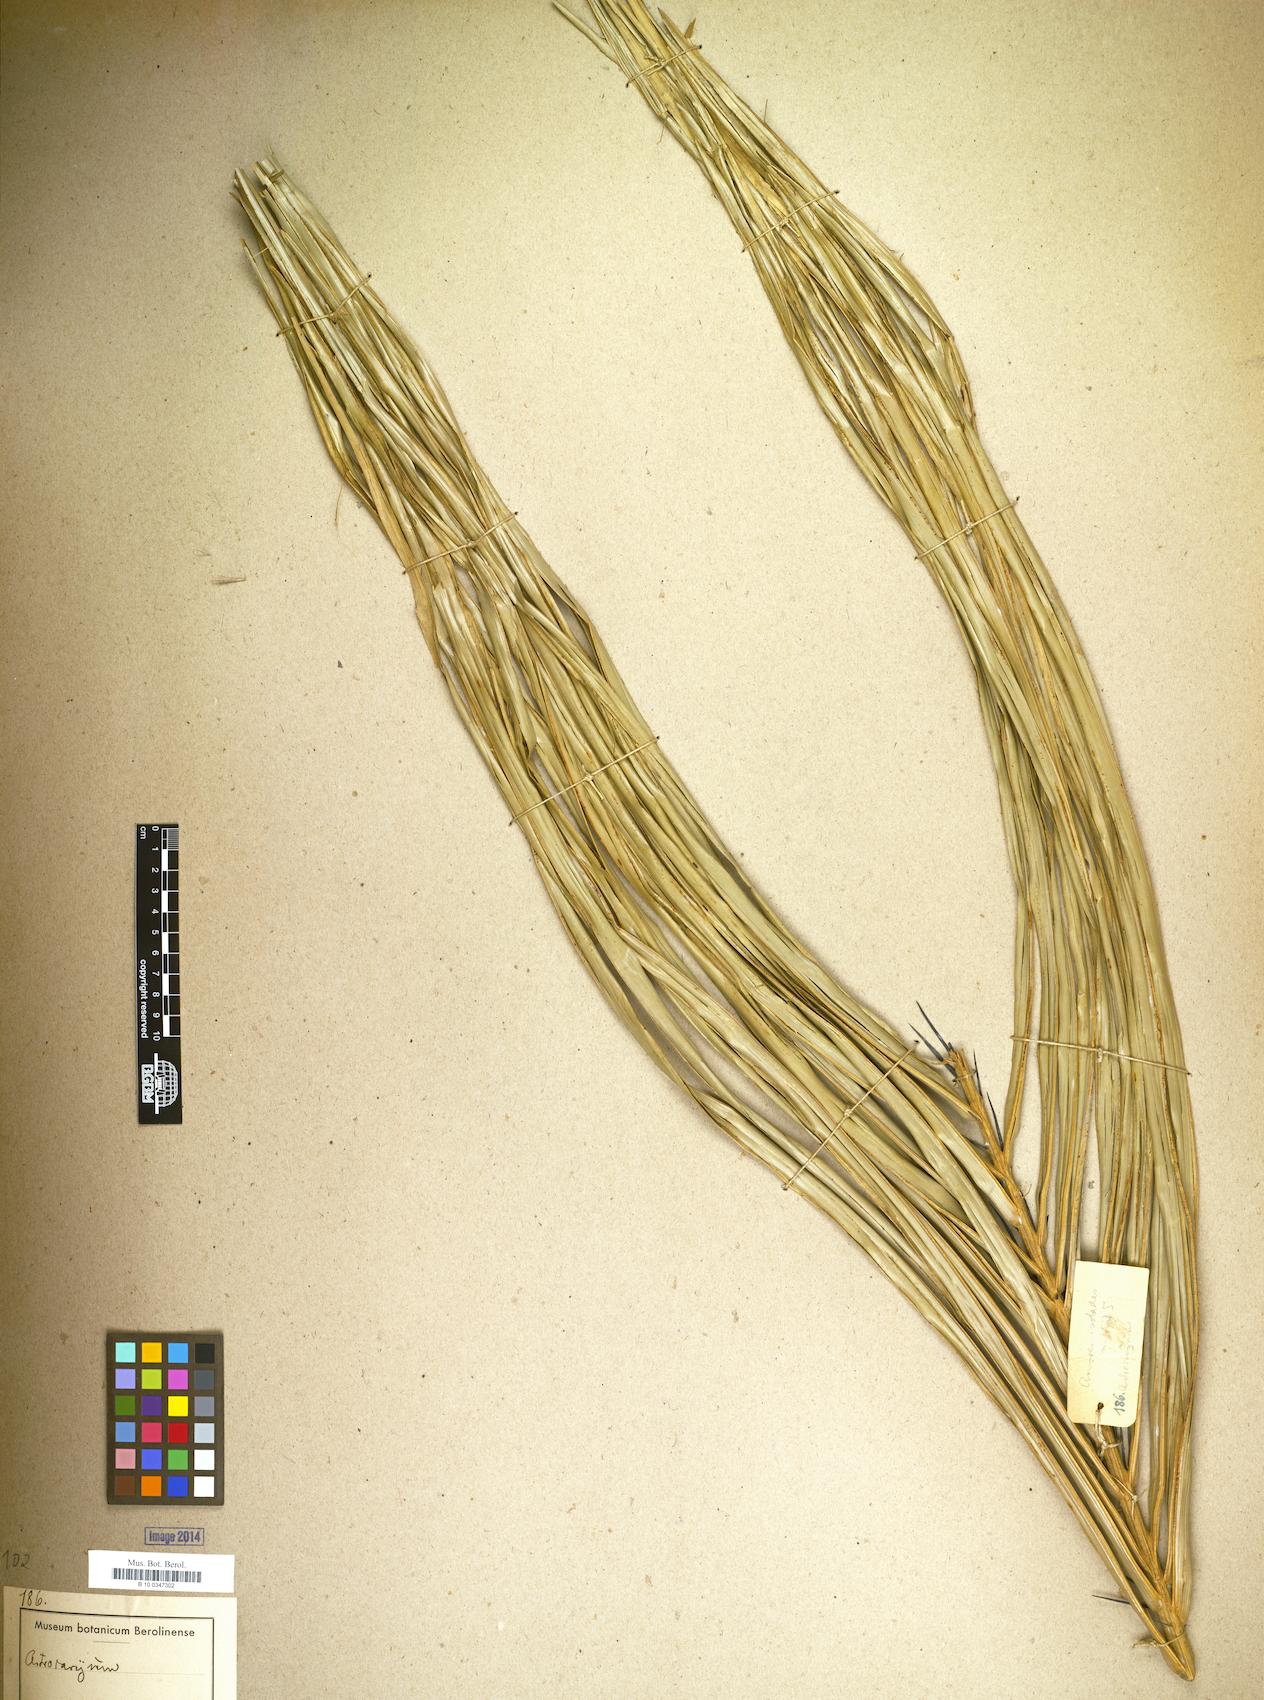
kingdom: Plantae
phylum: Tracheophyta
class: Liliopsida
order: Arecales
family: Arecaceae
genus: Astrocaryum
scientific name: Astrocaryum
